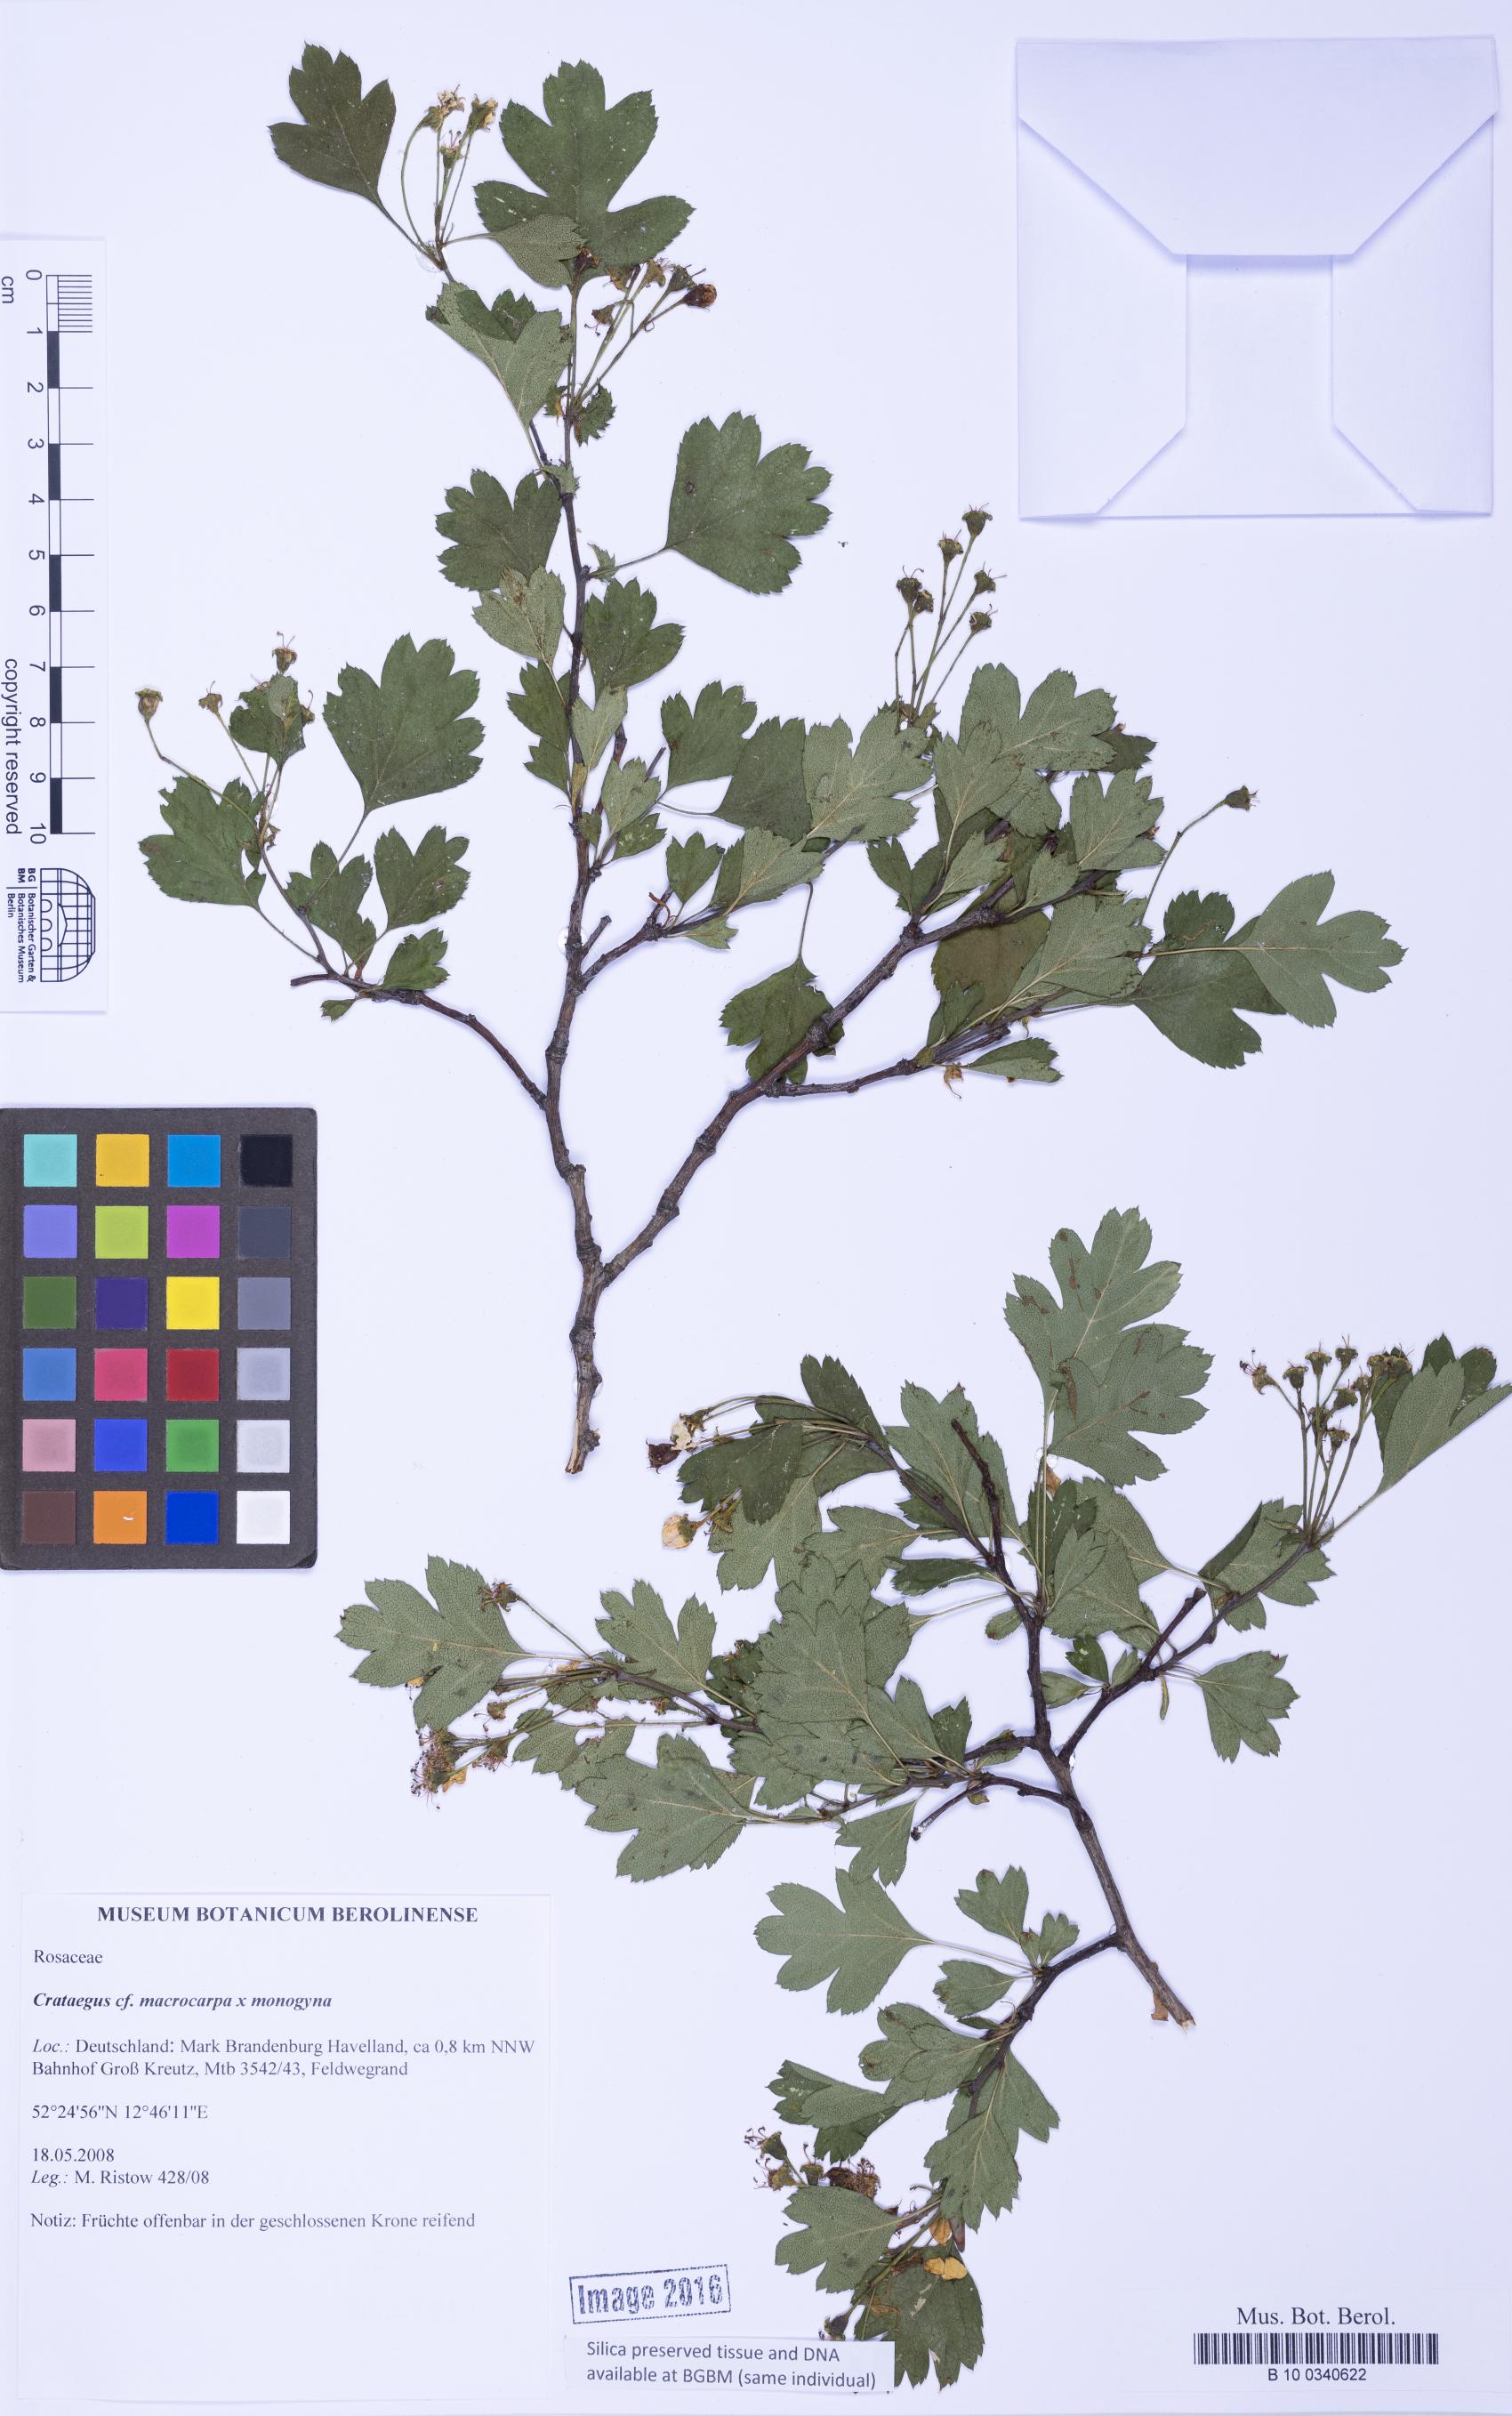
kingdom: Plantae
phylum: Tracheophyta
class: Magnoliopsida
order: Rosales
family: Rosaceae
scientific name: Rosaceae
